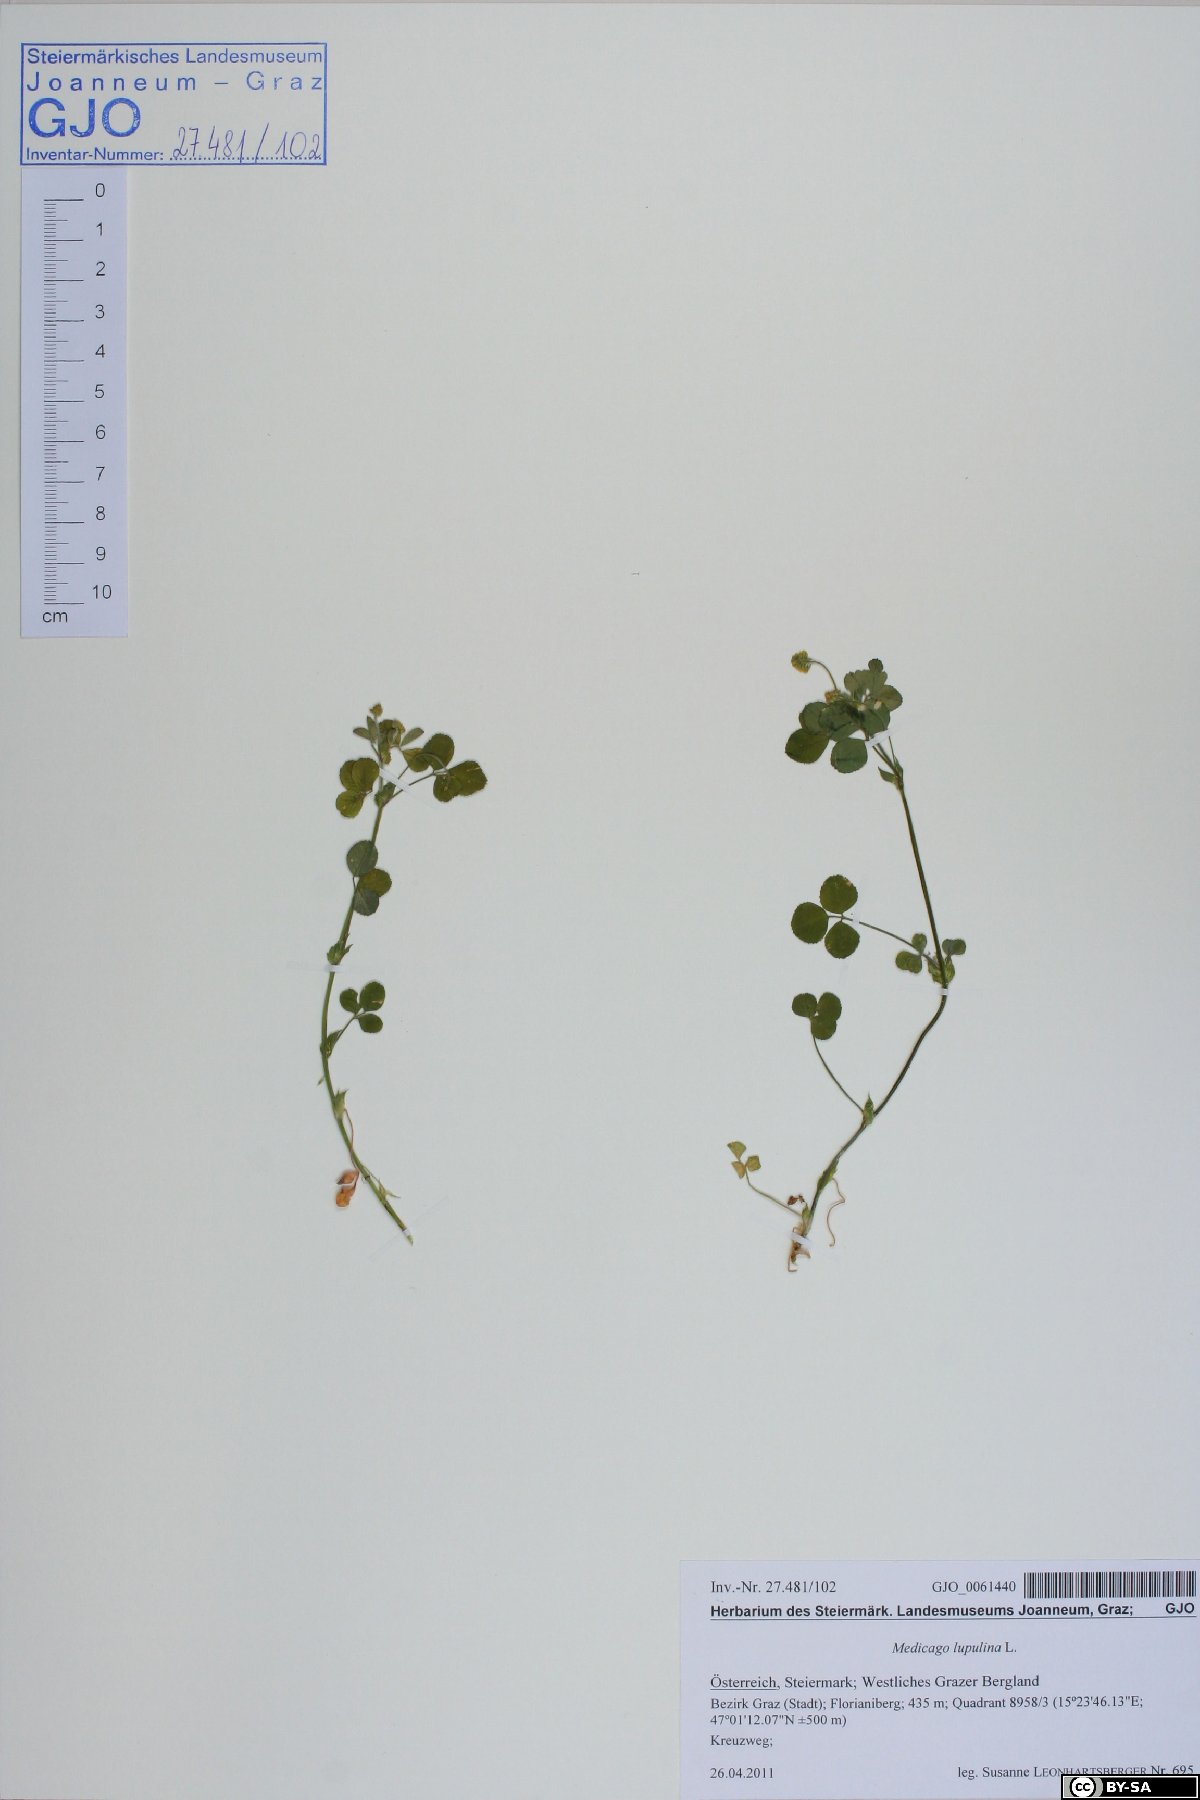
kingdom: Plantae
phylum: Tracheophyta
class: Magnoliopsida
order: Fabales
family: Fabaceae
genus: Medicago
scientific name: Medicago lupulina
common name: Black medick
